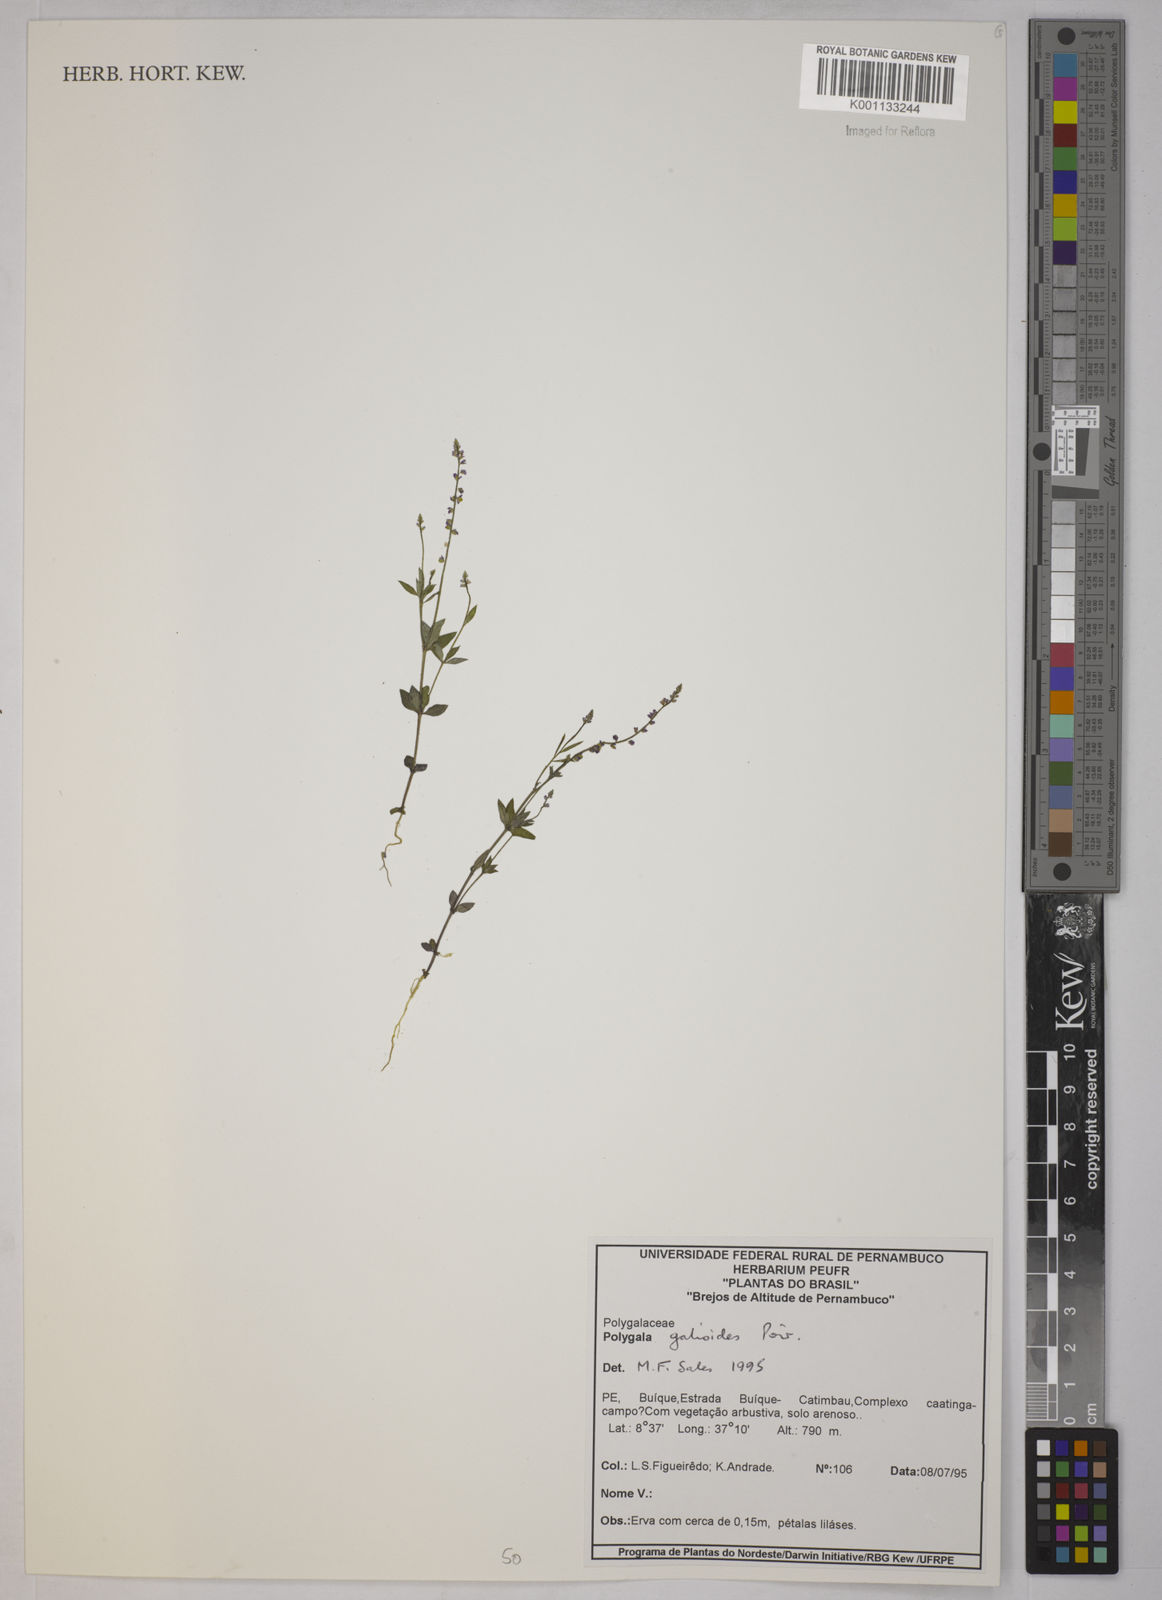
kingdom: Plantae
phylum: Tracheophyta
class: Magnoliopsida
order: Fabales
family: Polygalaceae
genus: Polygala
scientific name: Polygala galioides
